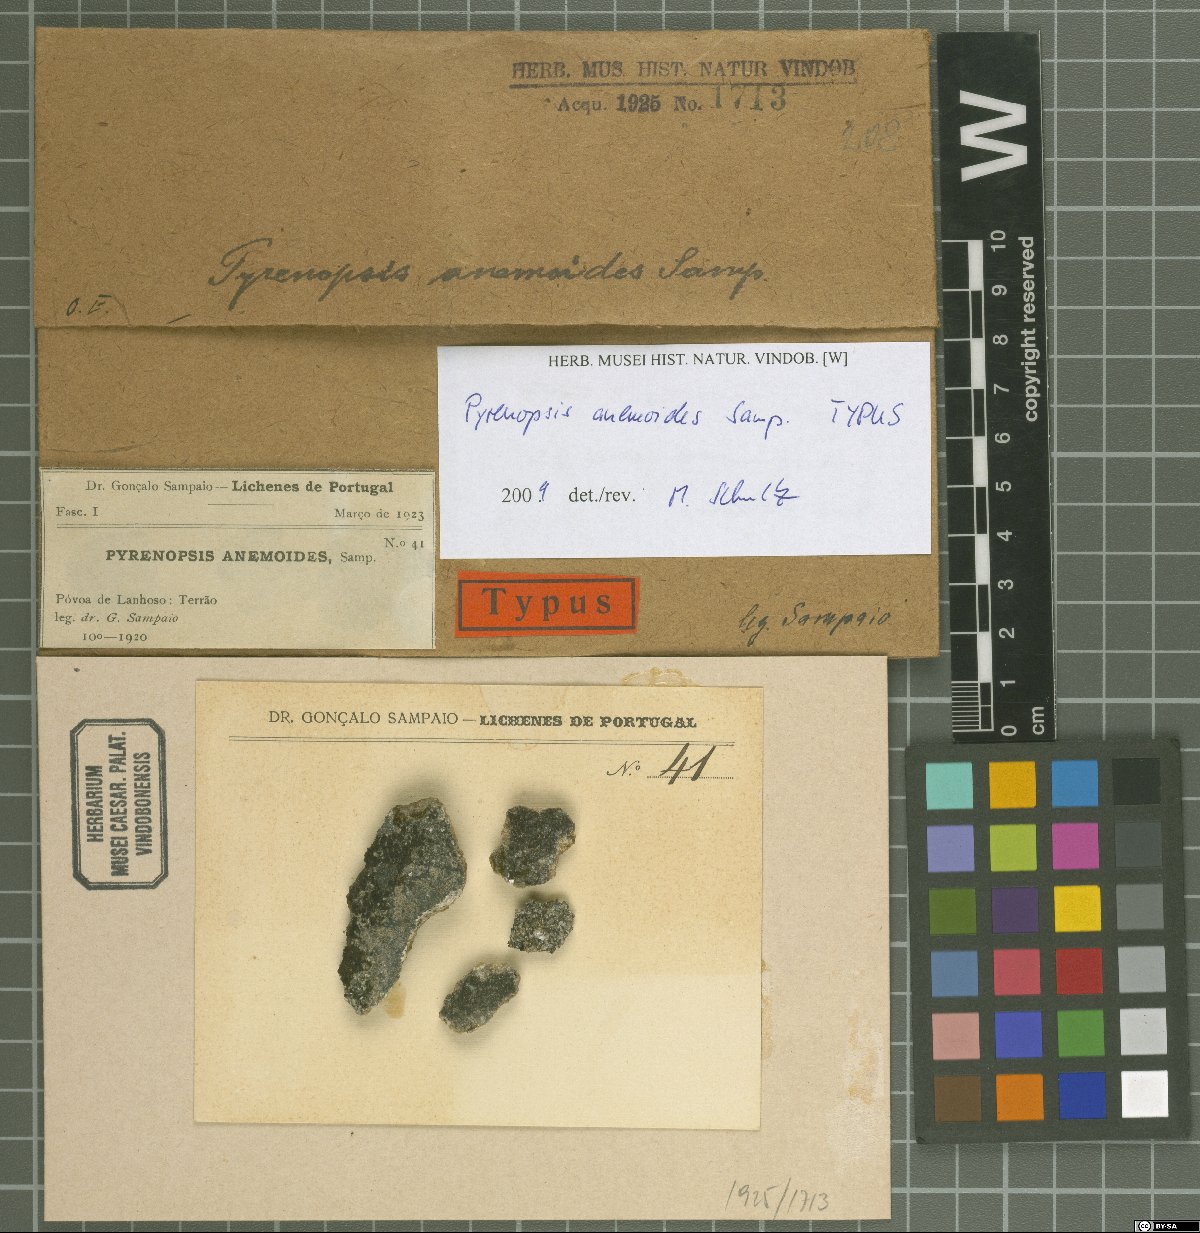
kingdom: Fungi
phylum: Ascomycota
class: Lichinomycetes
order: Lichinales
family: Lichinaceae
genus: Pyrenopsis
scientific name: Pyrenopsis
